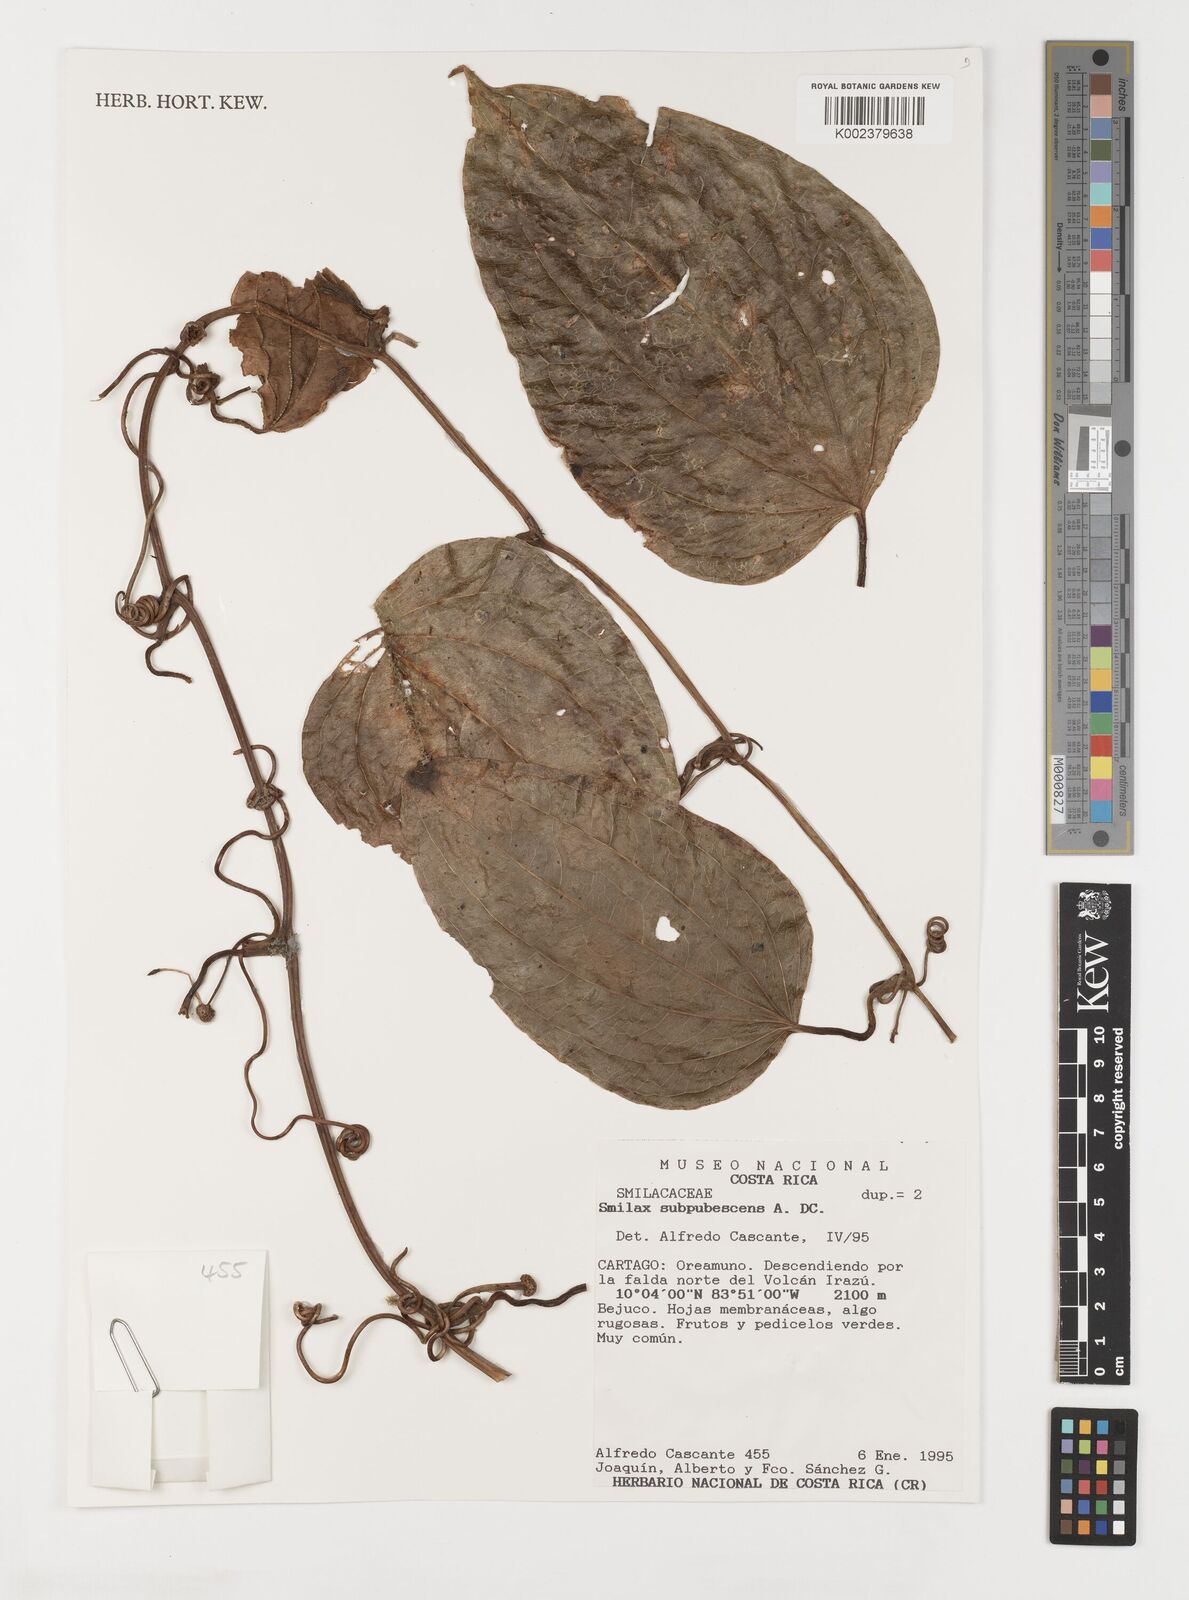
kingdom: Plantae
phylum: Tracheophyta
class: Liliopsida
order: Liliales
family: Smilacaceae
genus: Smilax
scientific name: Smilax subpubescens
